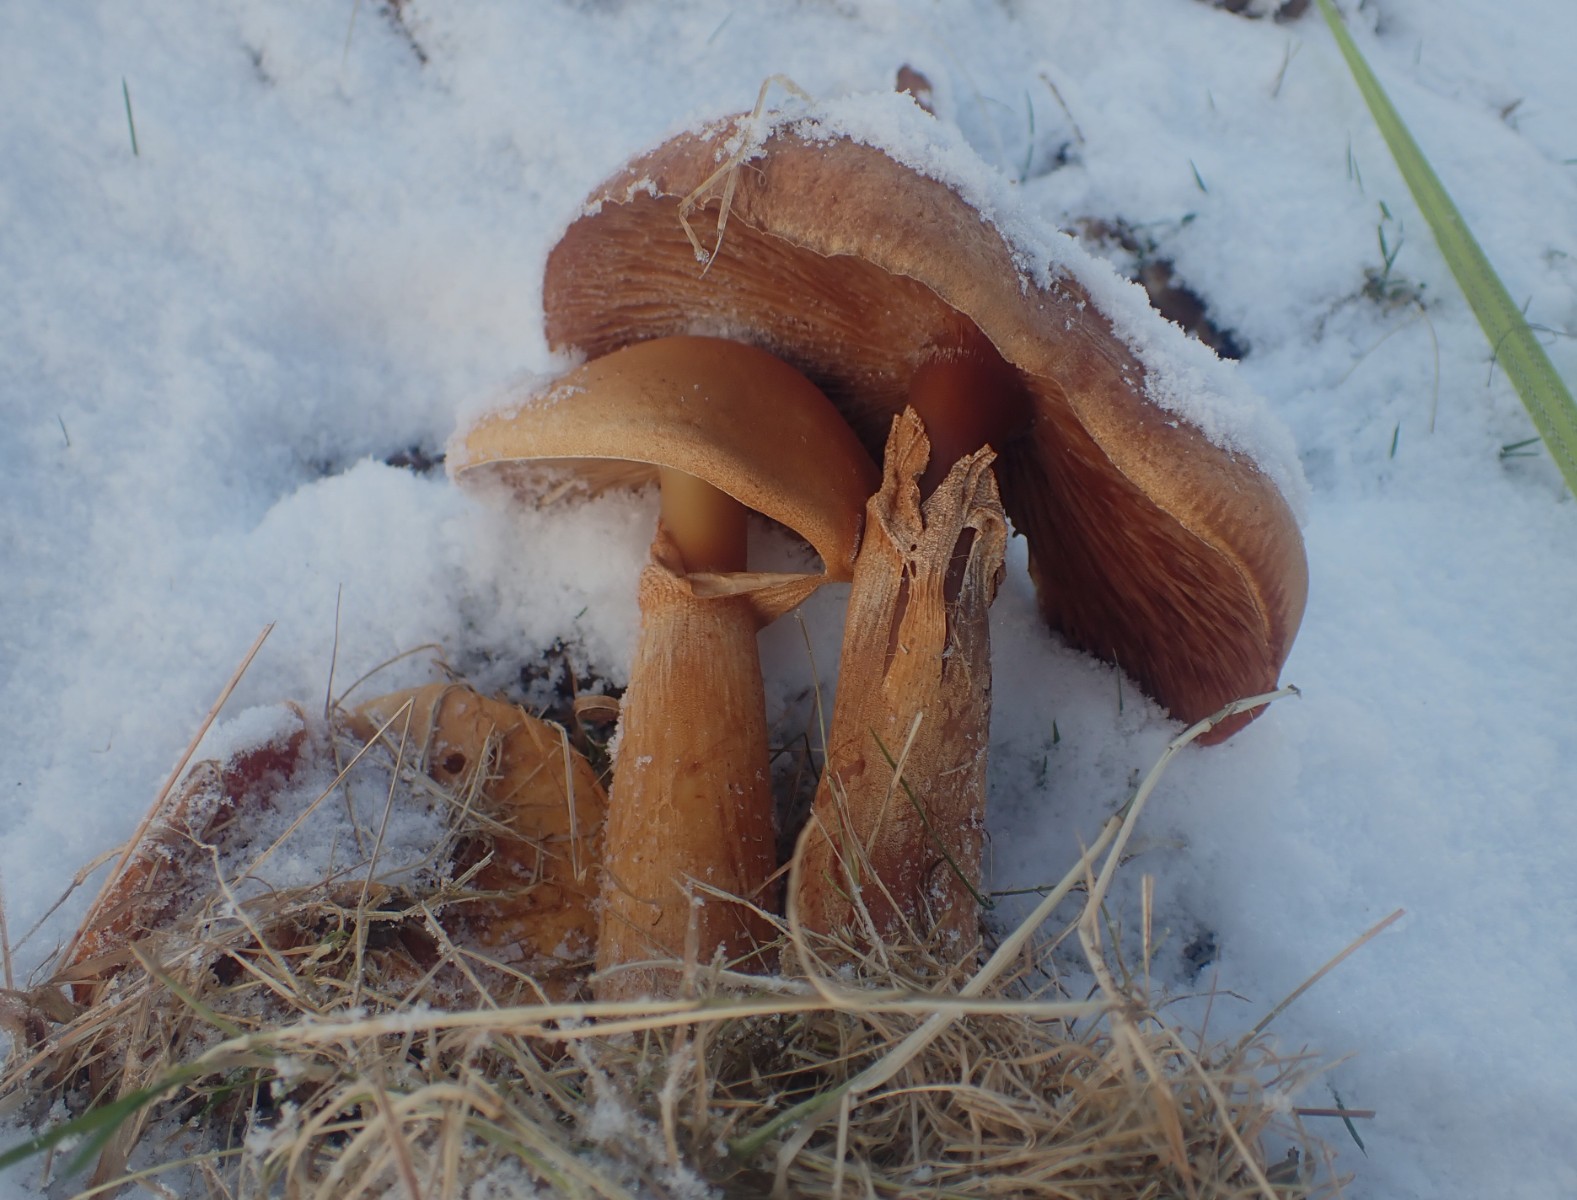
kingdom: Fungi
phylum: Basidiomycota
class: Agaricomycetes
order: Agaricales
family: Tricholomataceae
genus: Phaeolepiota
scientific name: Phaeolepiota aurea
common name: gyldenhat
